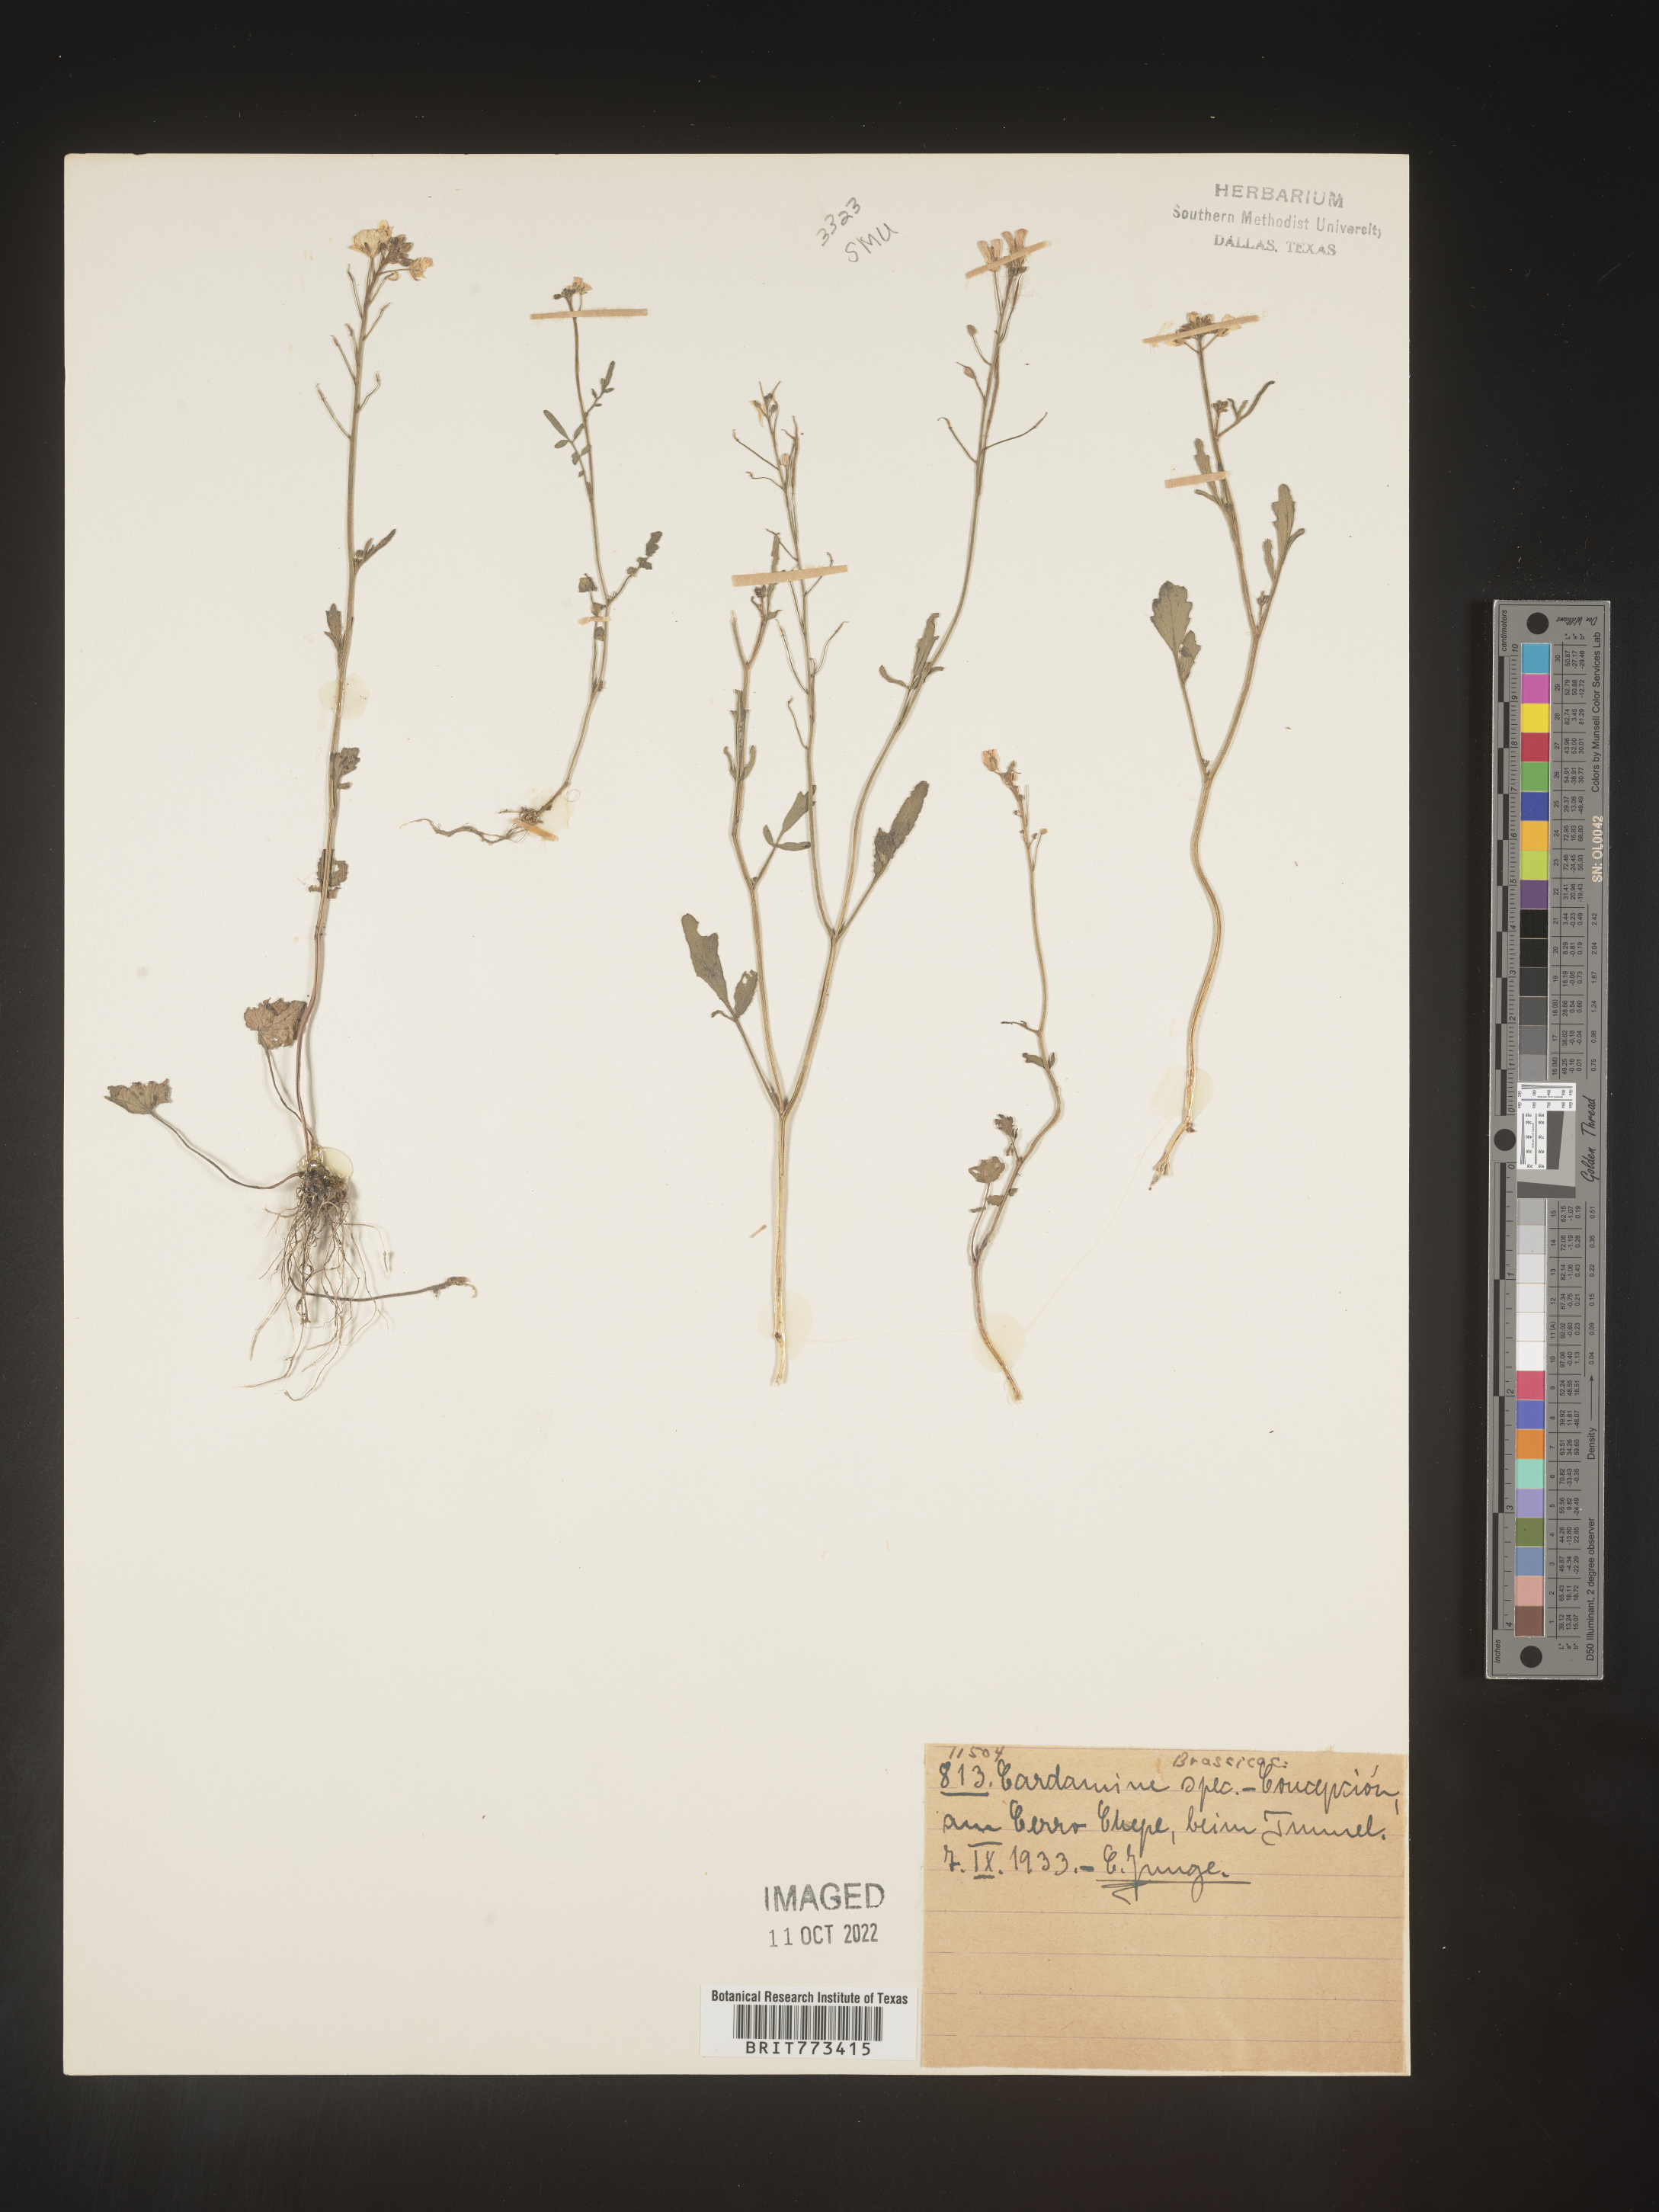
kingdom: Plantae
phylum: Tracheophyta
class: Magnoliopsida
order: Brassicales
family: Brassicaceae
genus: Cardamine
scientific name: Cardamine
